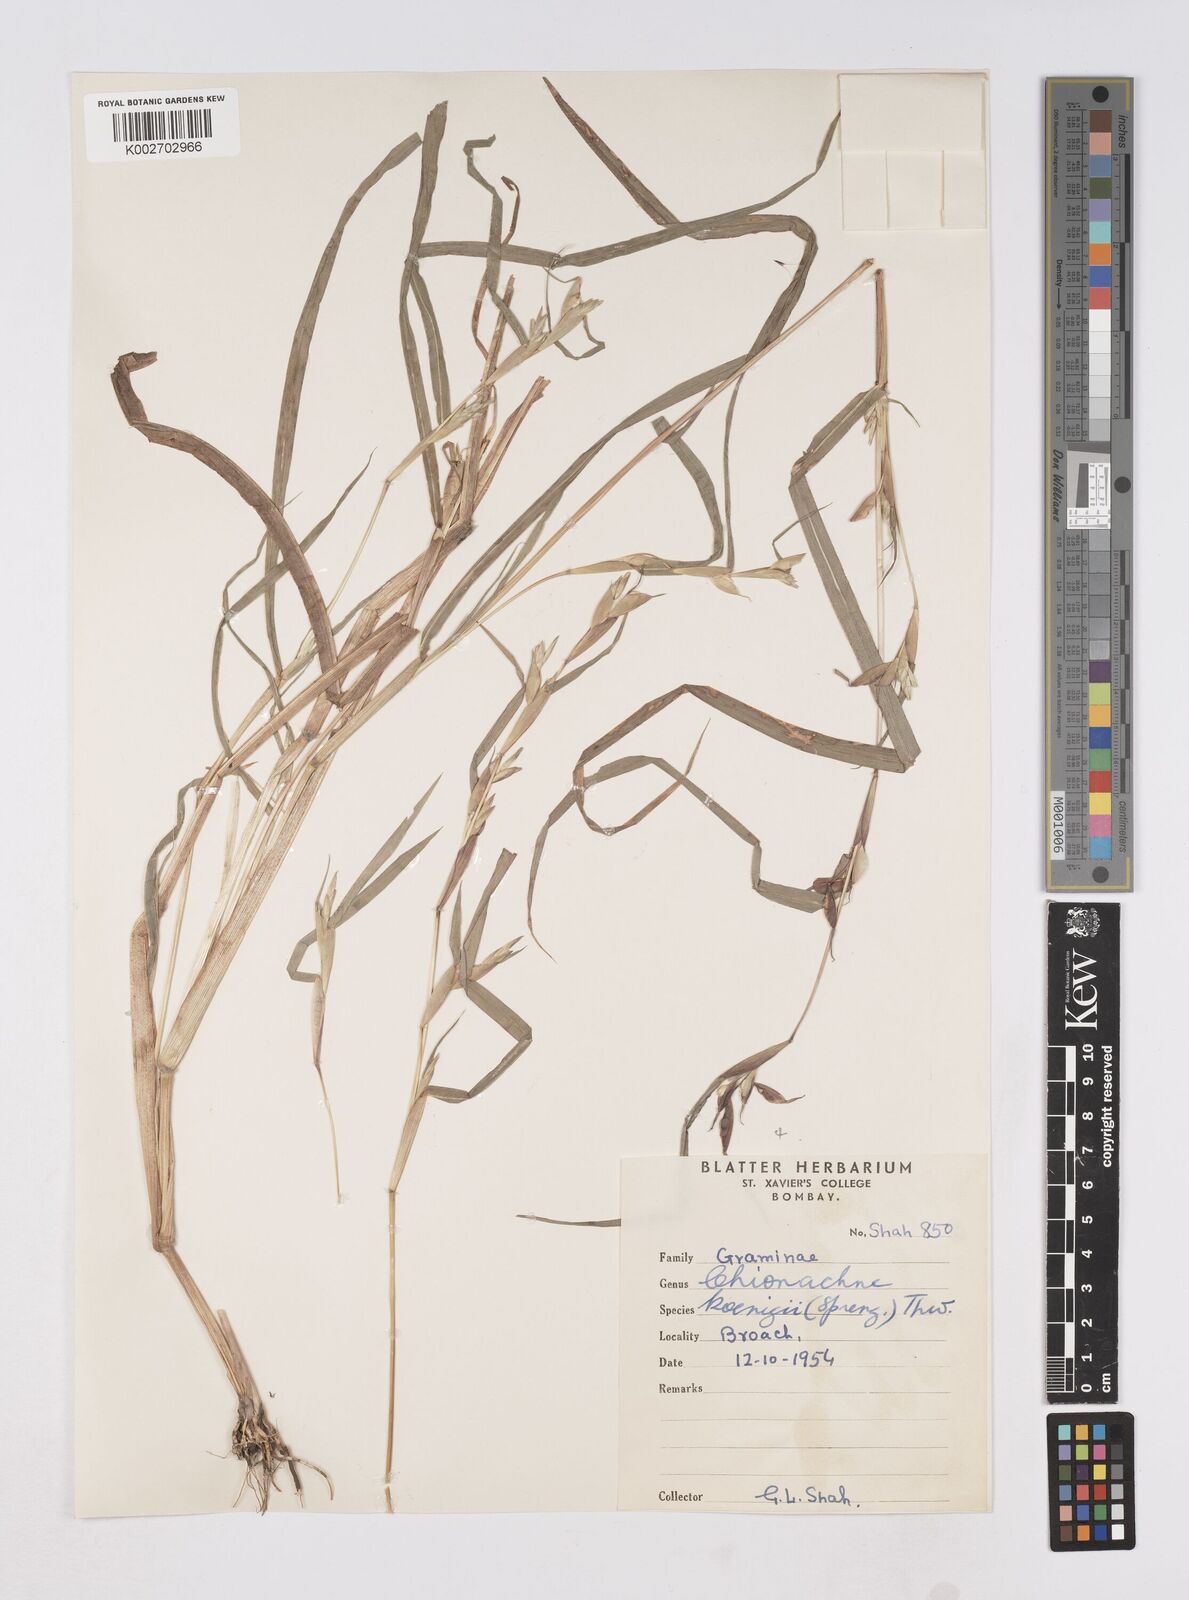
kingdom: Plantae
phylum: Tracheophyta
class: Liliopsida
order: Poales
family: Poaceae
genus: Polytoca
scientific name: Polytoca gigantea
